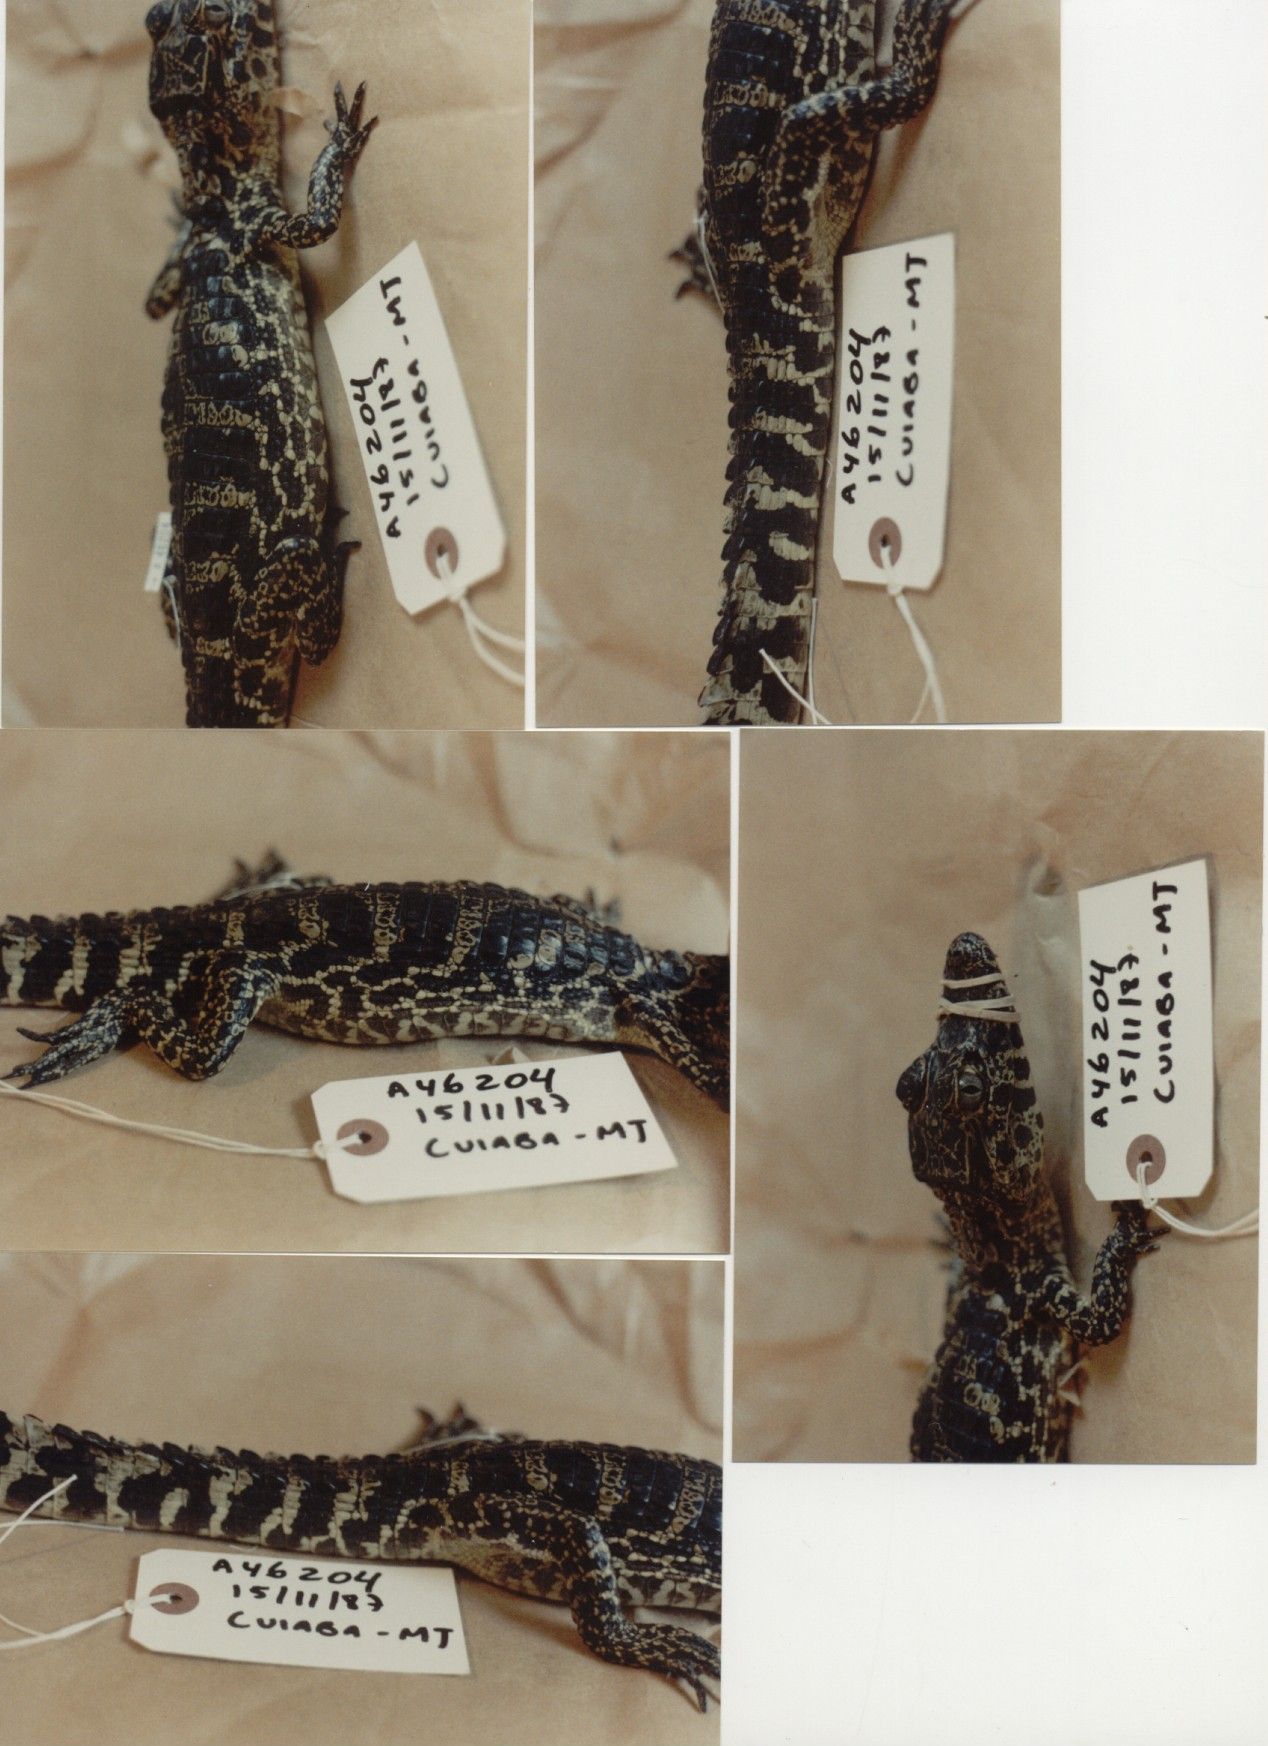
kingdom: Animalia
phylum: Chordata
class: Crocodylia
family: Alligatoridae
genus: Caiman
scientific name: Caiman yacare
